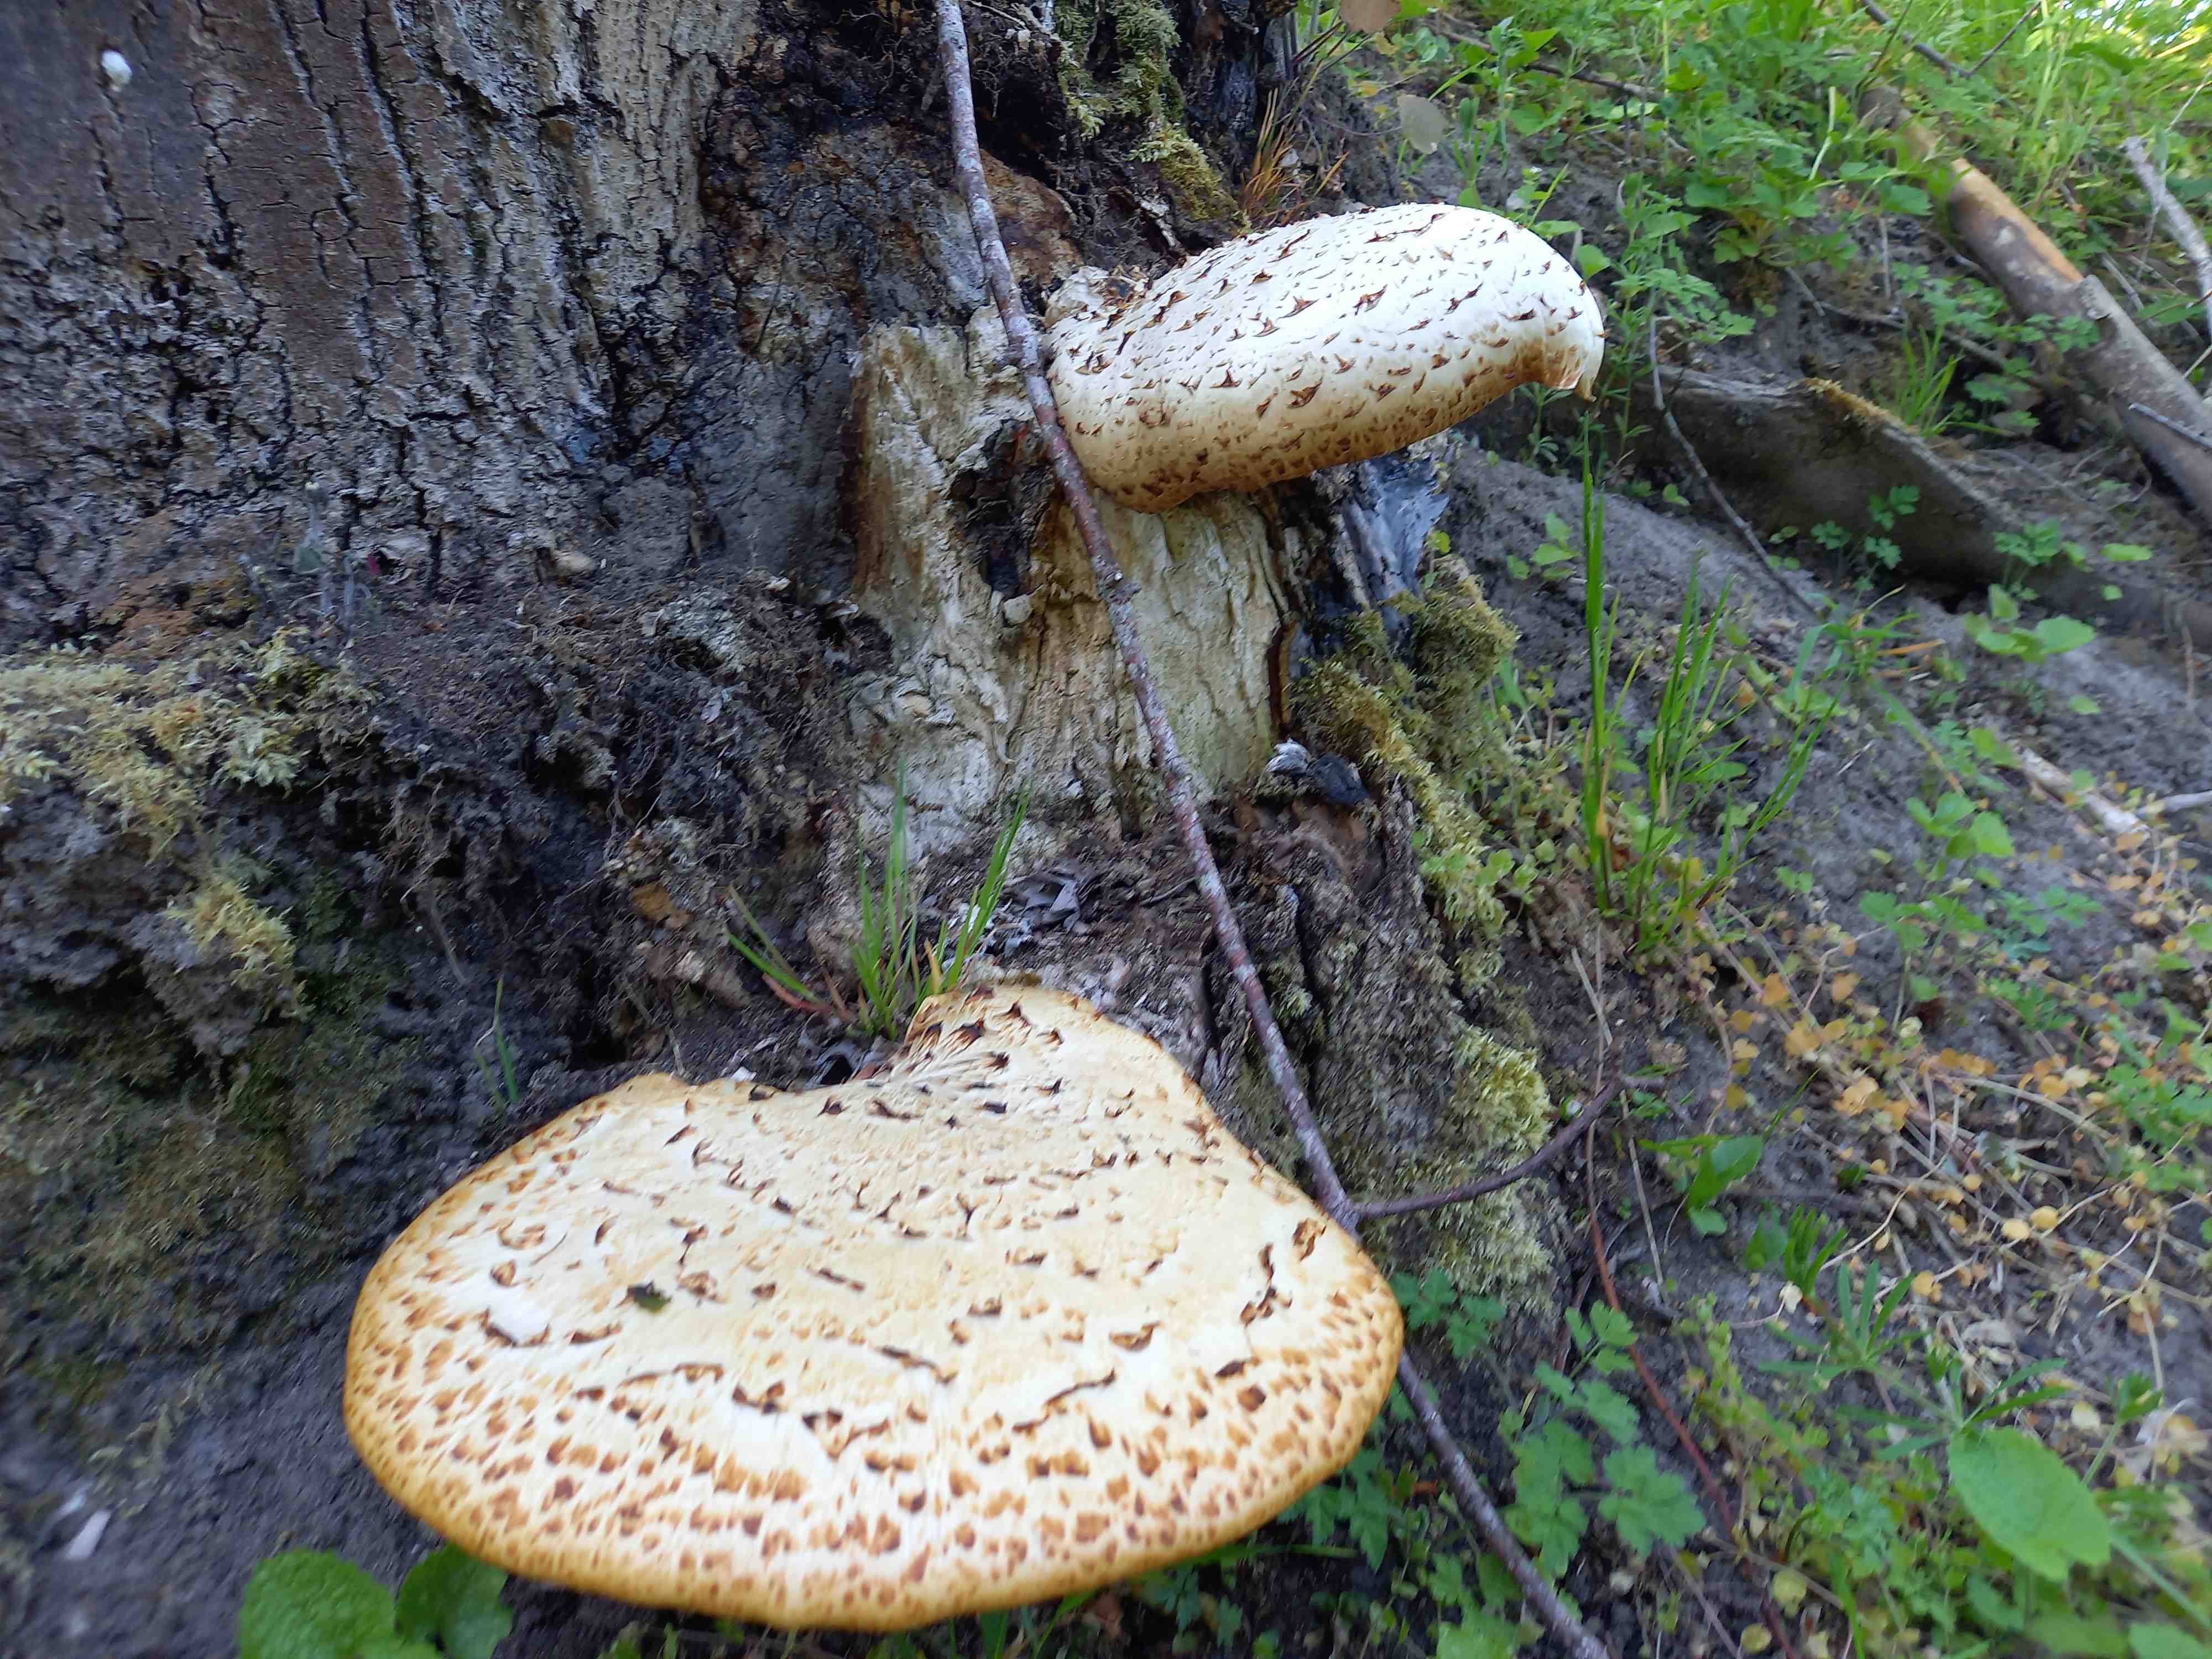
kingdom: Fungi
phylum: Basidiomycota
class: Agaricomycetes
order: Polyporales
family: Polyporaceae
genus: Cerioporus
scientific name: Cerioporus squamosus
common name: skællet stilkporesvamp
